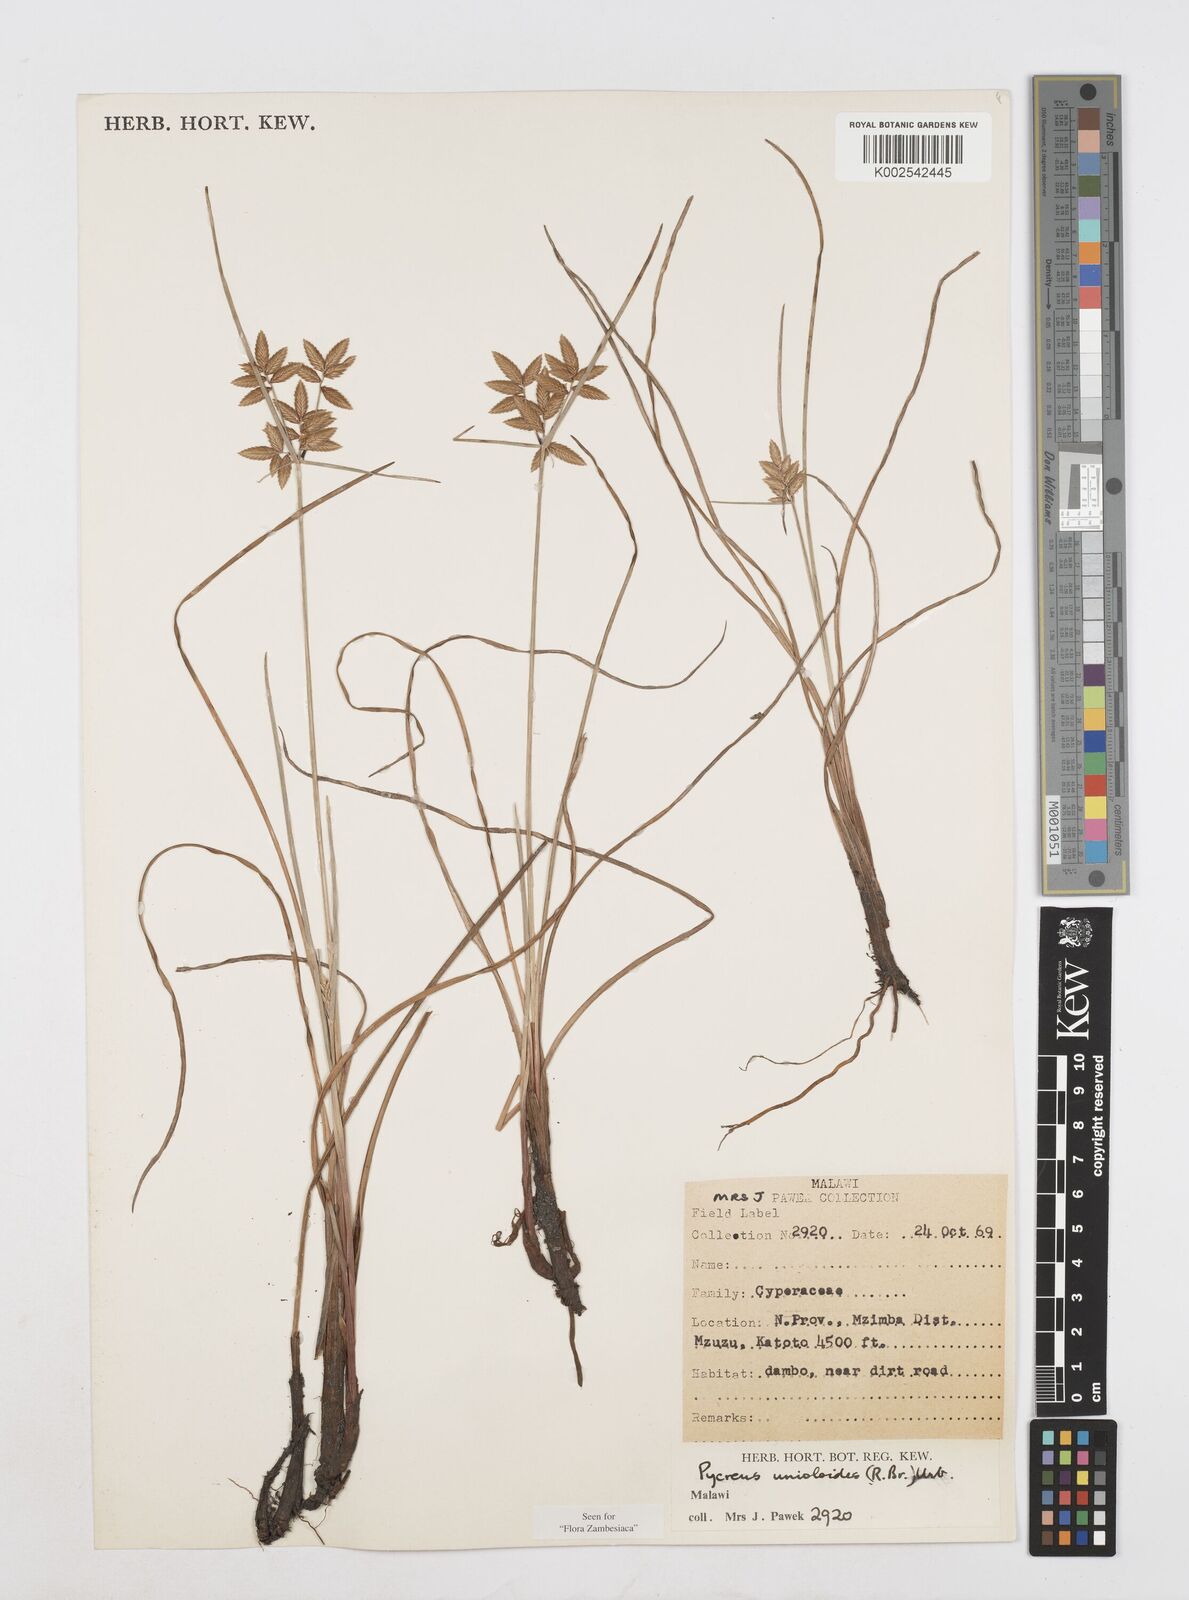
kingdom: Plantae
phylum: Tracheophyta
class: Liliopsida
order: Poales
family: Cyperaceae
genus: Cyperus
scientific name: Cyperus unioloides
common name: Uniola flatsedge
